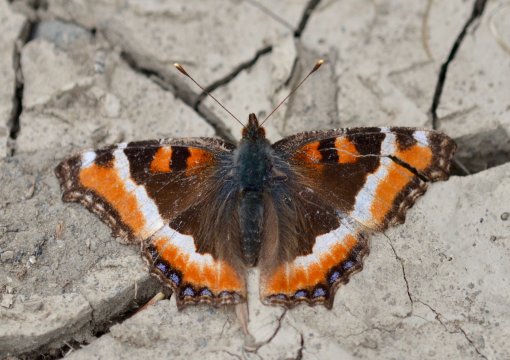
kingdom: Animalia
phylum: Arthropoda
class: Insecta
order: Lepidoptera
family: Nymphalidae
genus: Aglais
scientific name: Aglais milberti
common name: Milbert's Tortoiseshell
